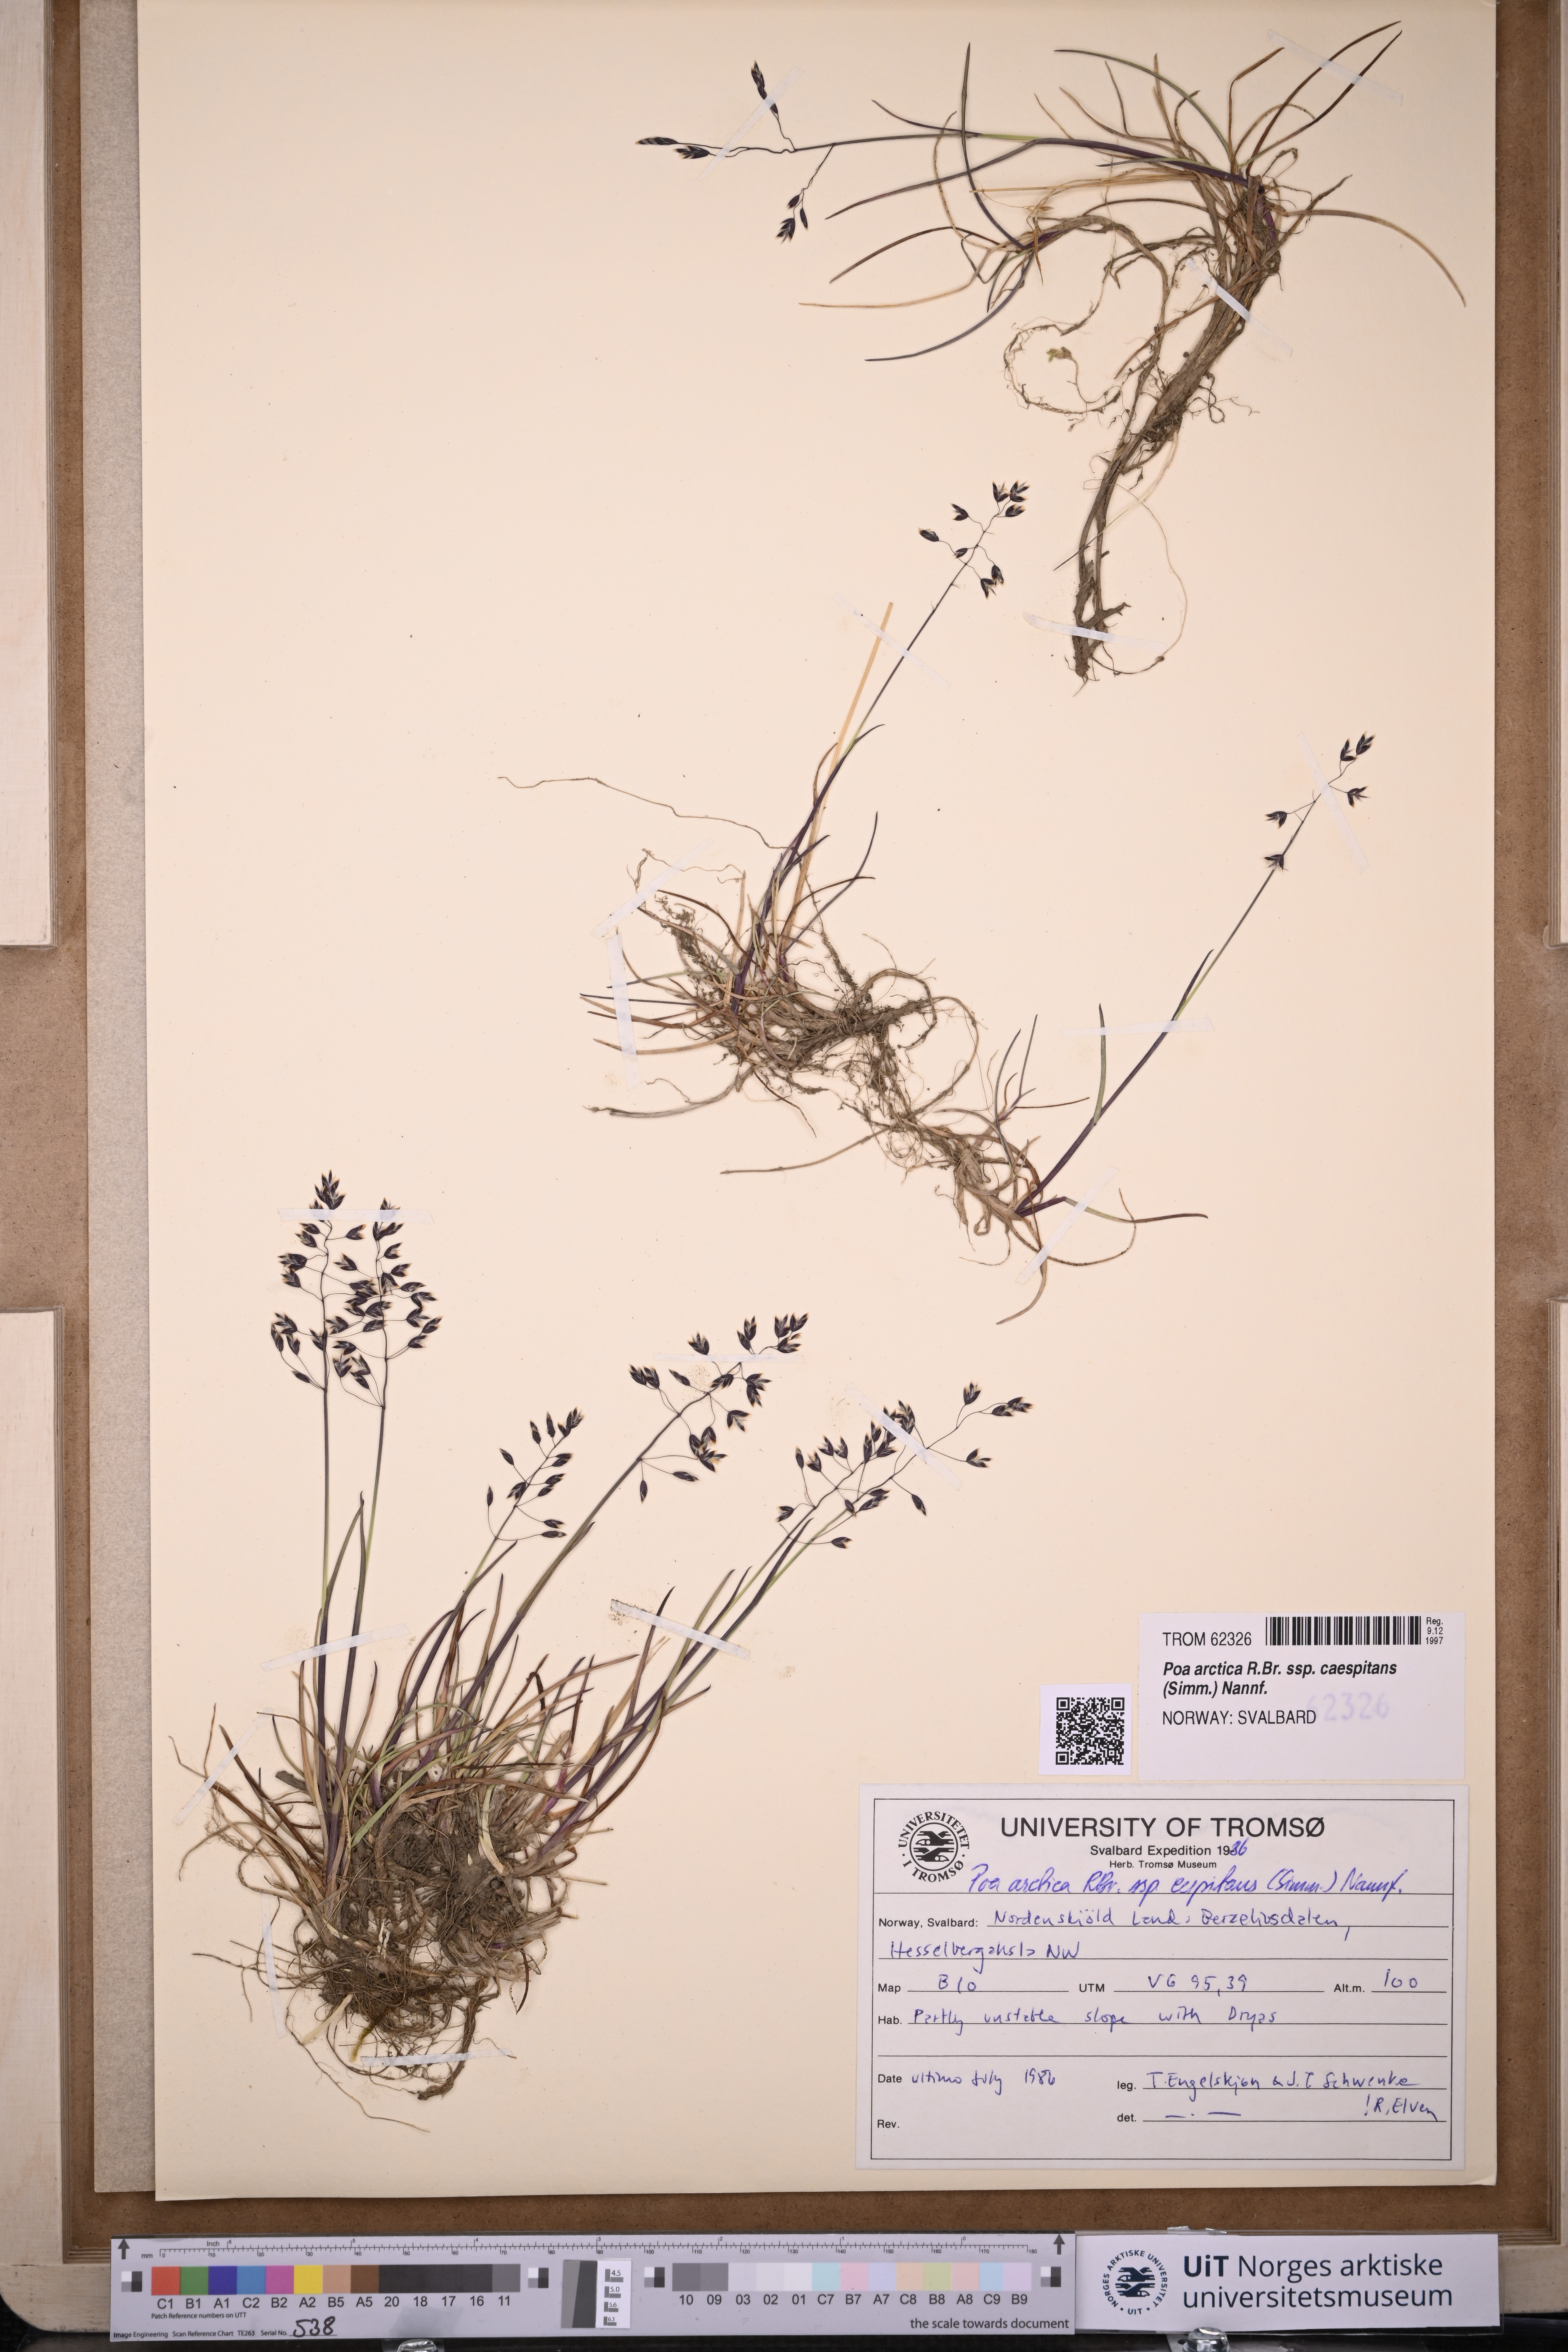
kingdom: Plantae
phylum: Tracheophyta
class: Liliopsida
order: Poales
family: Poaceae
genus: Poa
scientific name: Poa tolmatchewii
